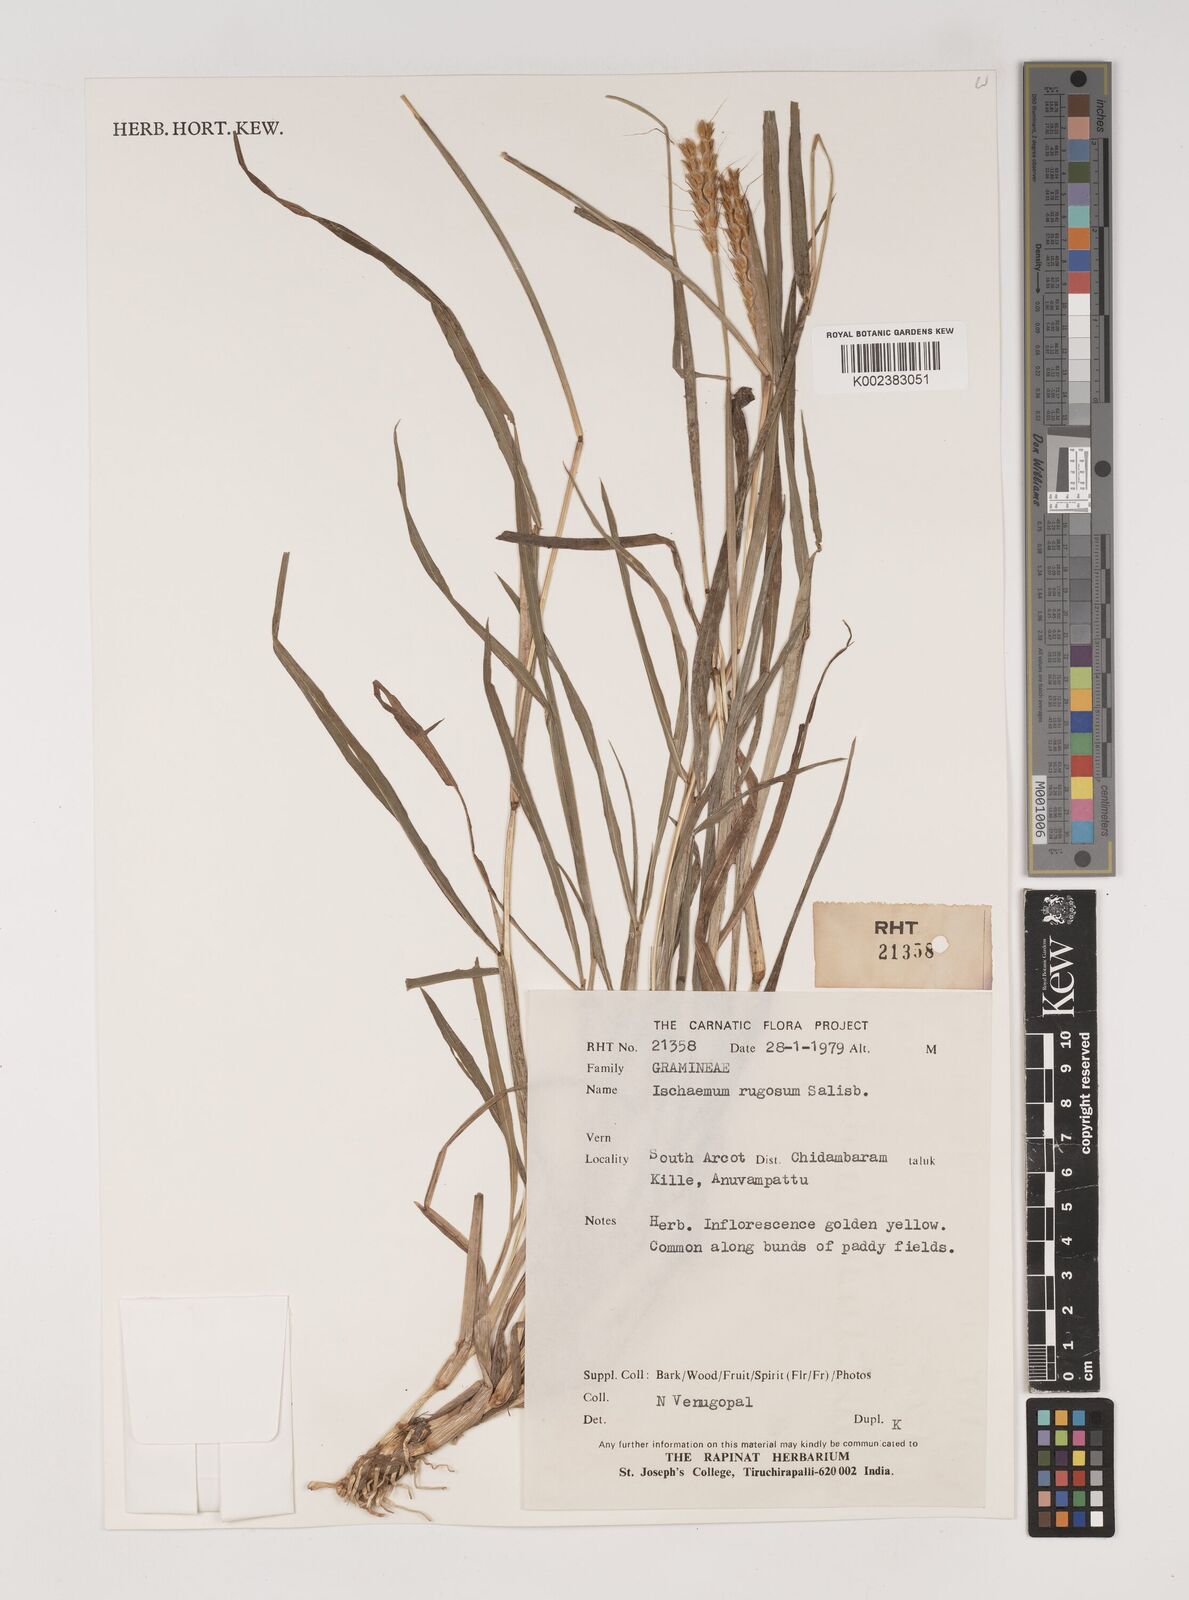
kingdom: Plantae
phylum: Tracheophyta
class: Liliopsida
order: Poales
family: Poaceae
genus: Ischaemum
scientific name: Ischaemum rugosum
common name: Saramatta grass
